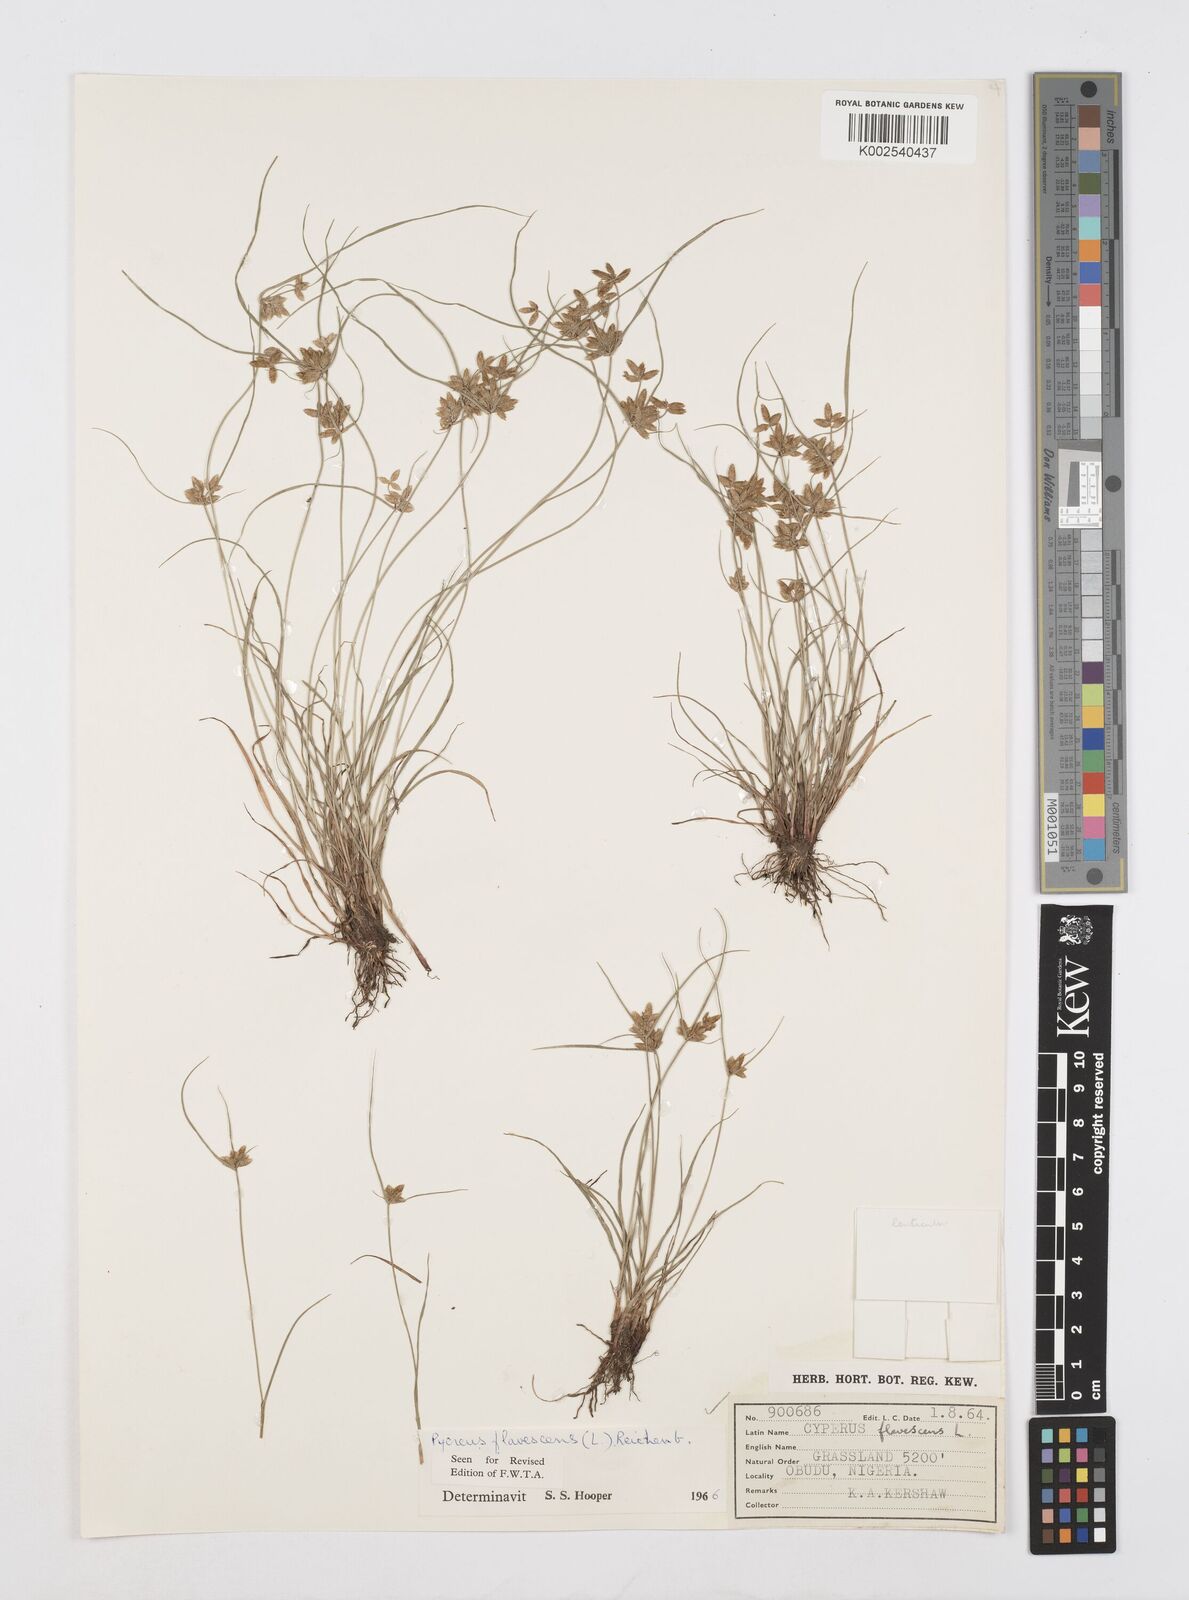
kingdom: Plantae
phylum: Tracheophyta
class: Liliopsida
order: Poales
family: Cyperaceae
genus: Cyperus
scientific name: Cyperus flavescens
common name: Yellow galingale
